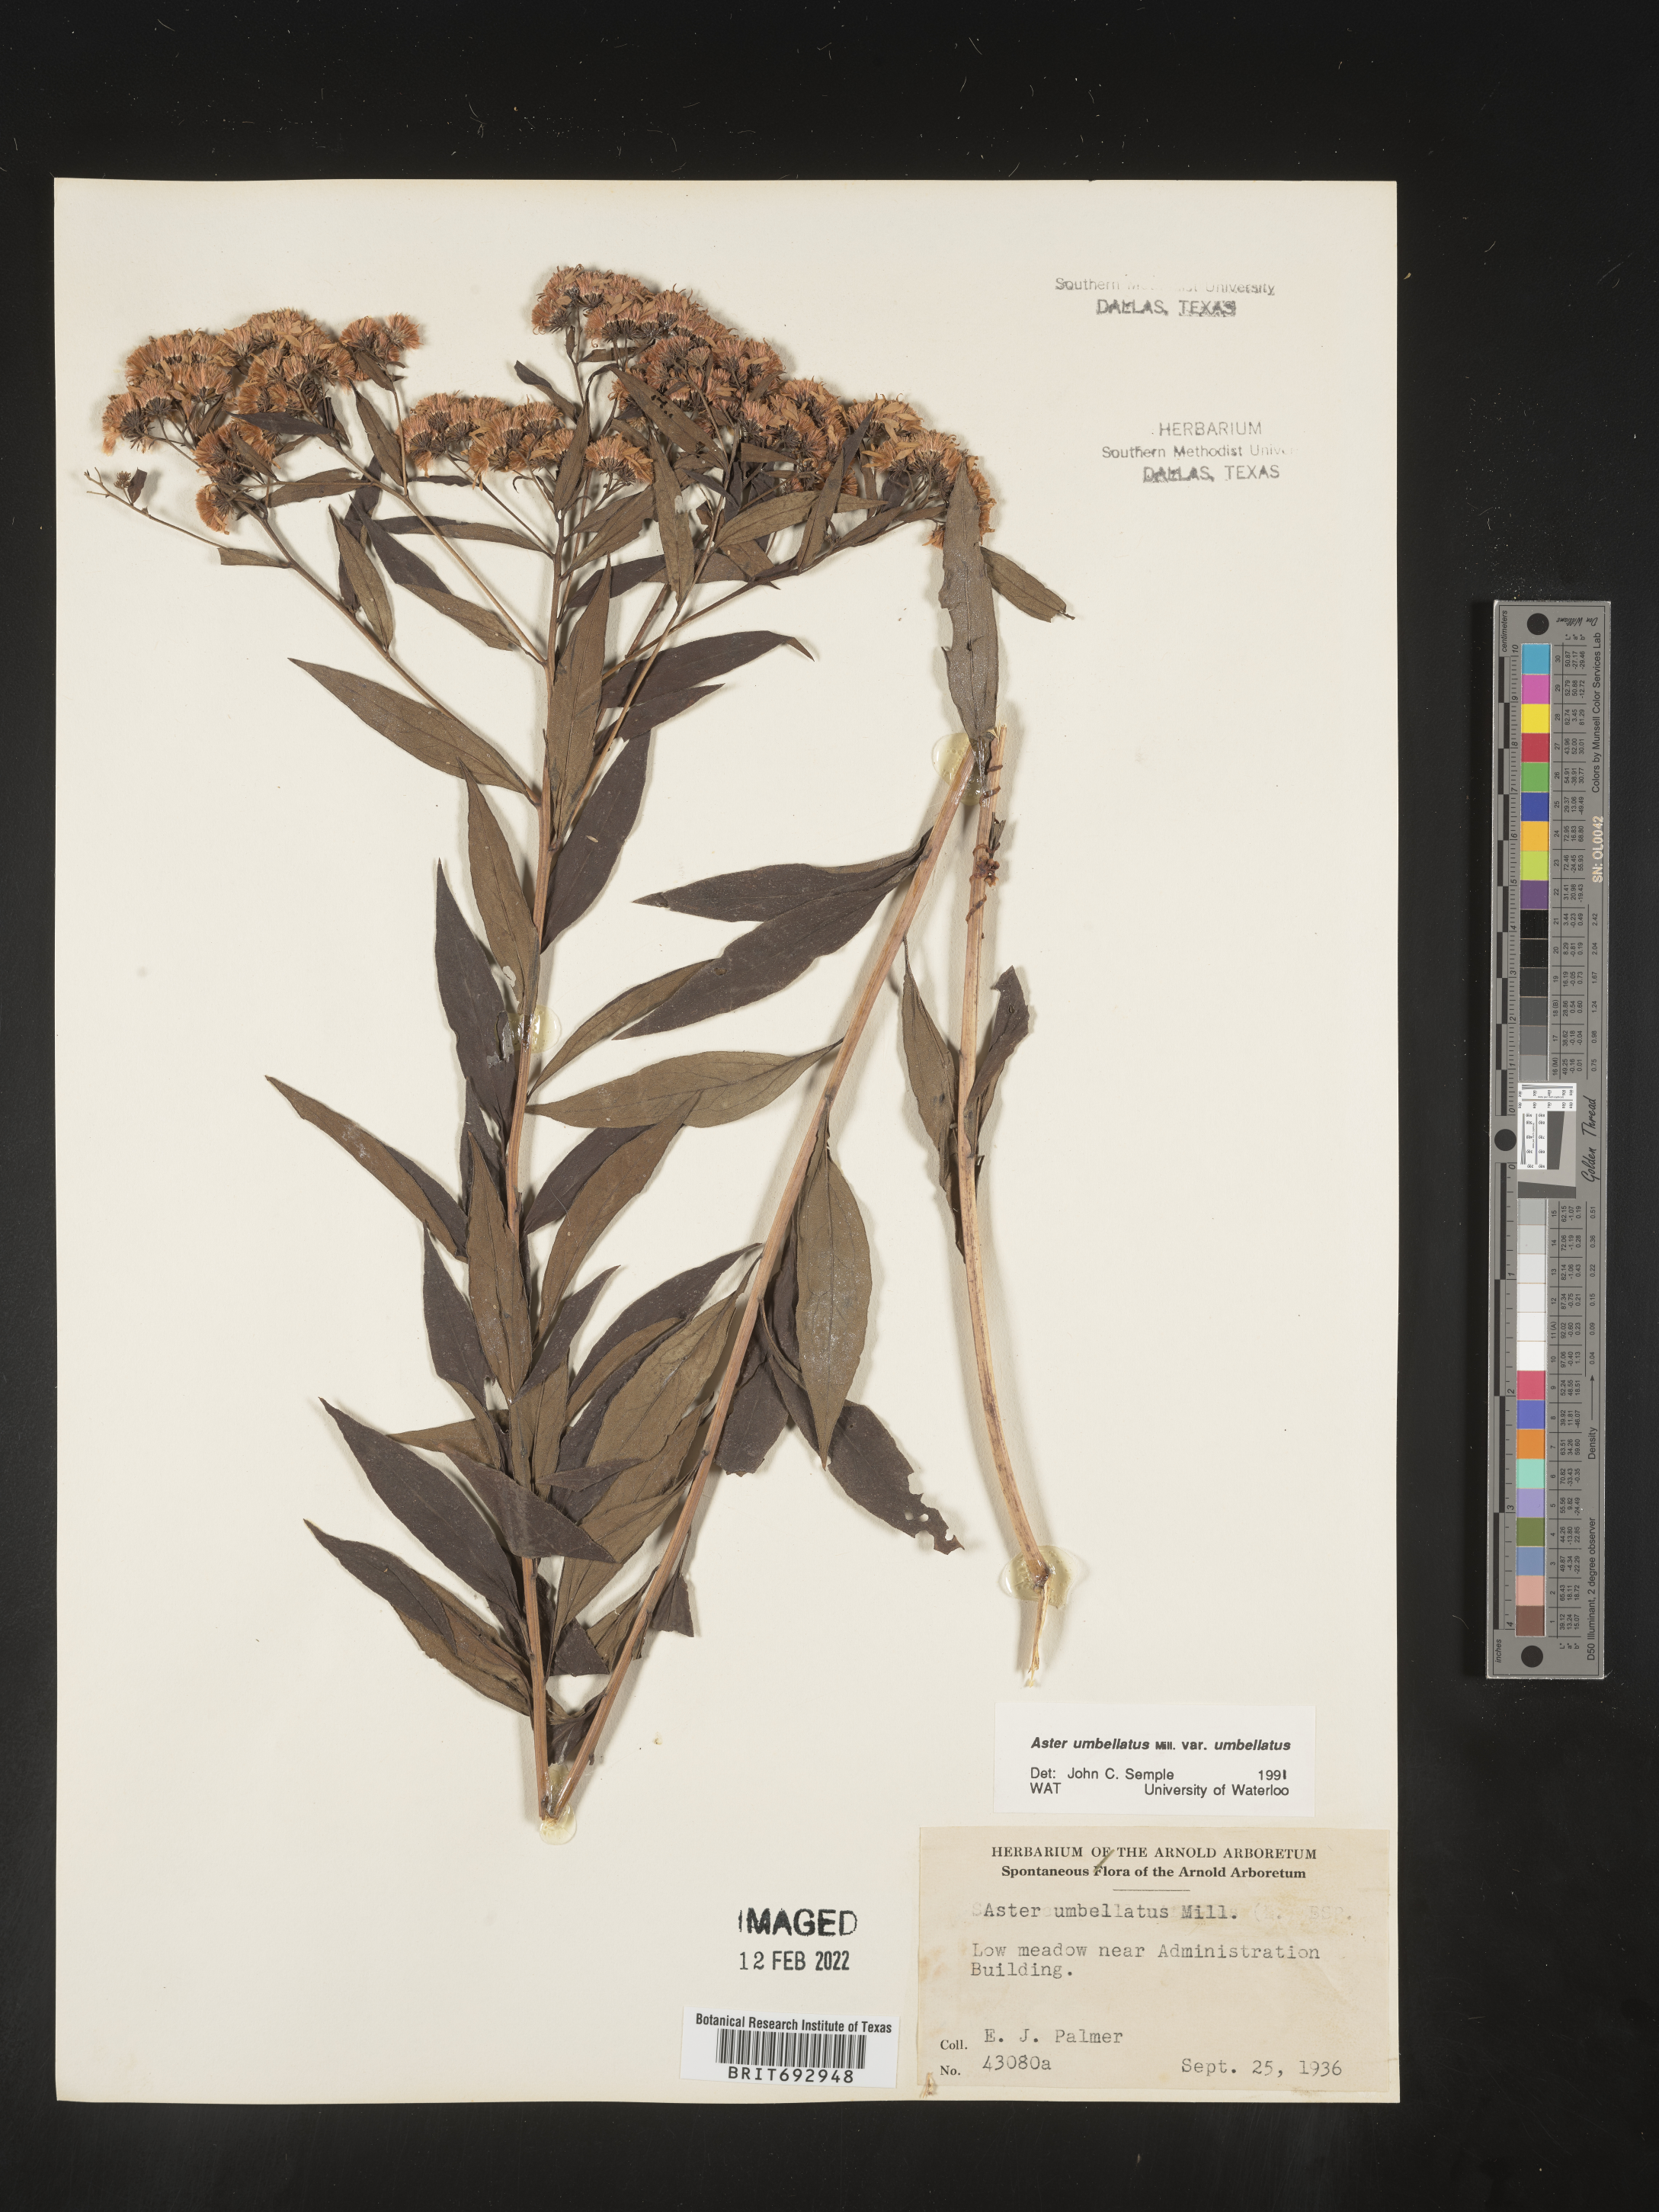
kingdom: Plantae
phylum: Tracheophyta
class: Magnoliopsida
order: Asterales
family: Asteraceae
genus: Doellingeria
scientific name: Doellingeria umbellata
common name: Flat-top white aster
